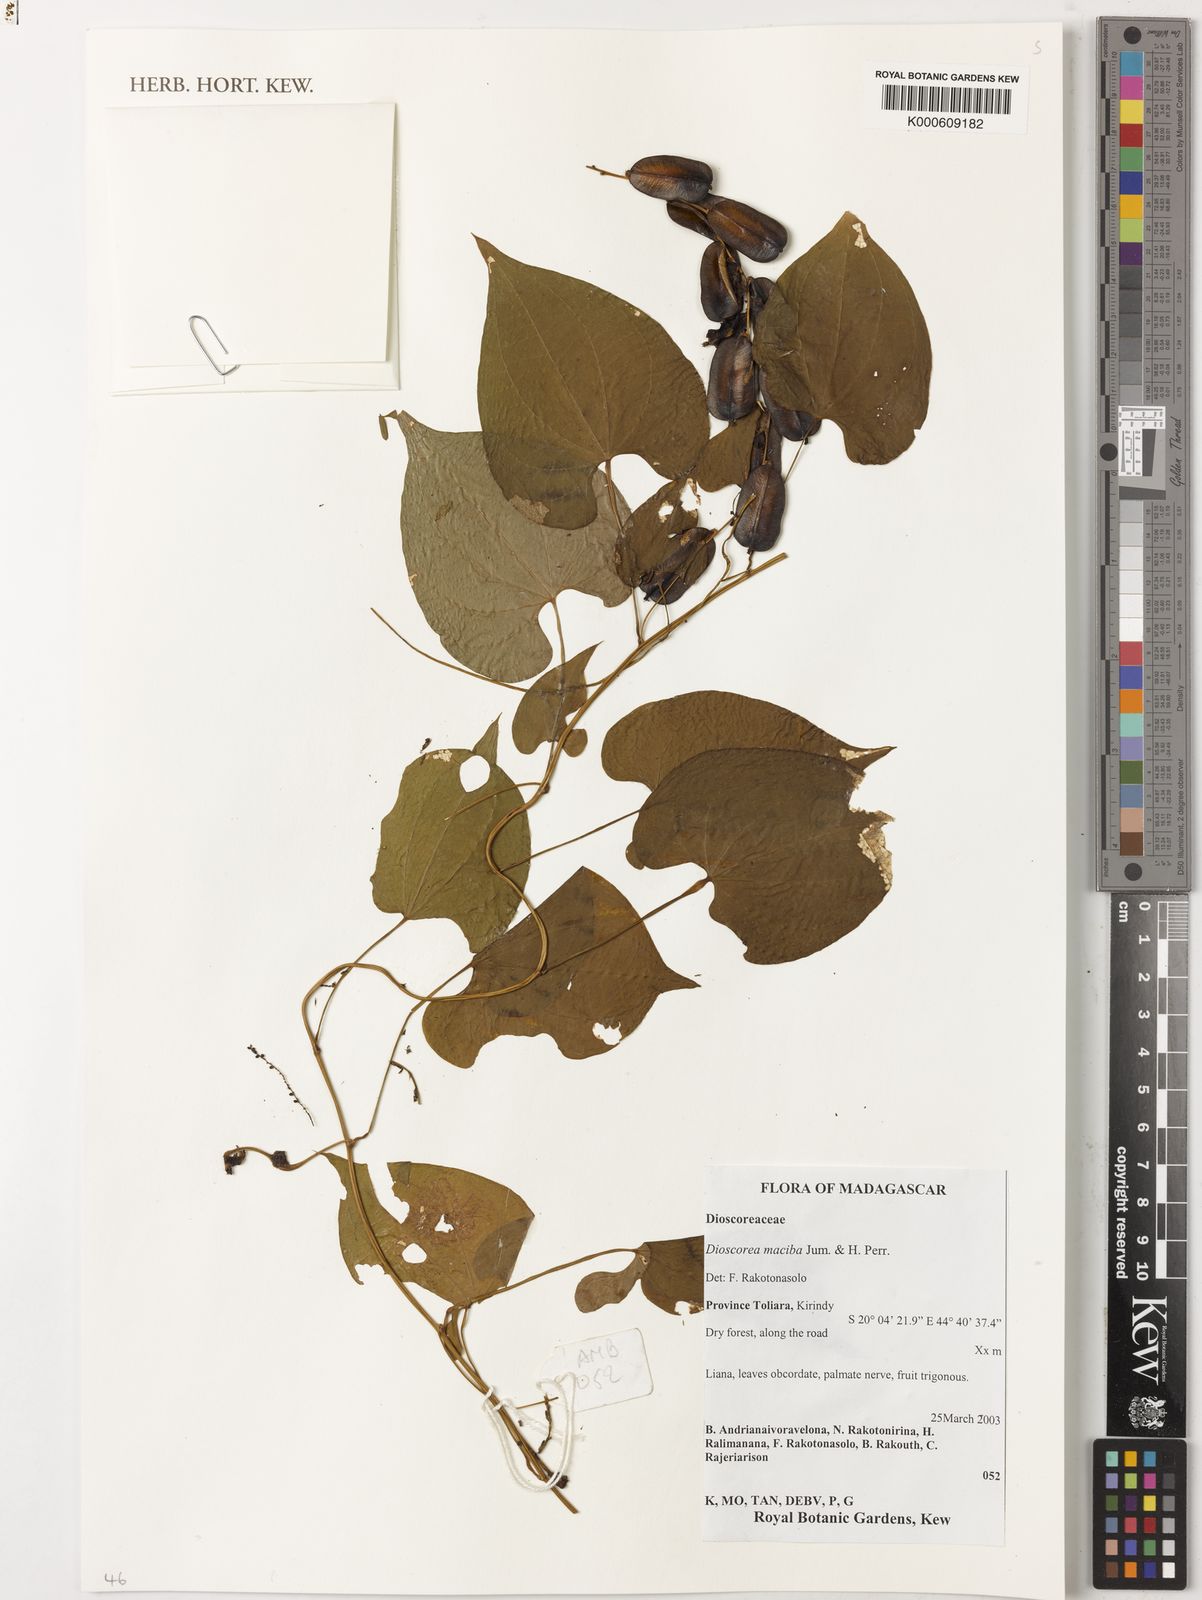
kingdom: Plantae
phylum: Tracheophyta
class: Liliopsida
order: Dioscoreales
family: Dioscoreaceae
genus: Dioscorea
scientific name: Dioscorea maciba
